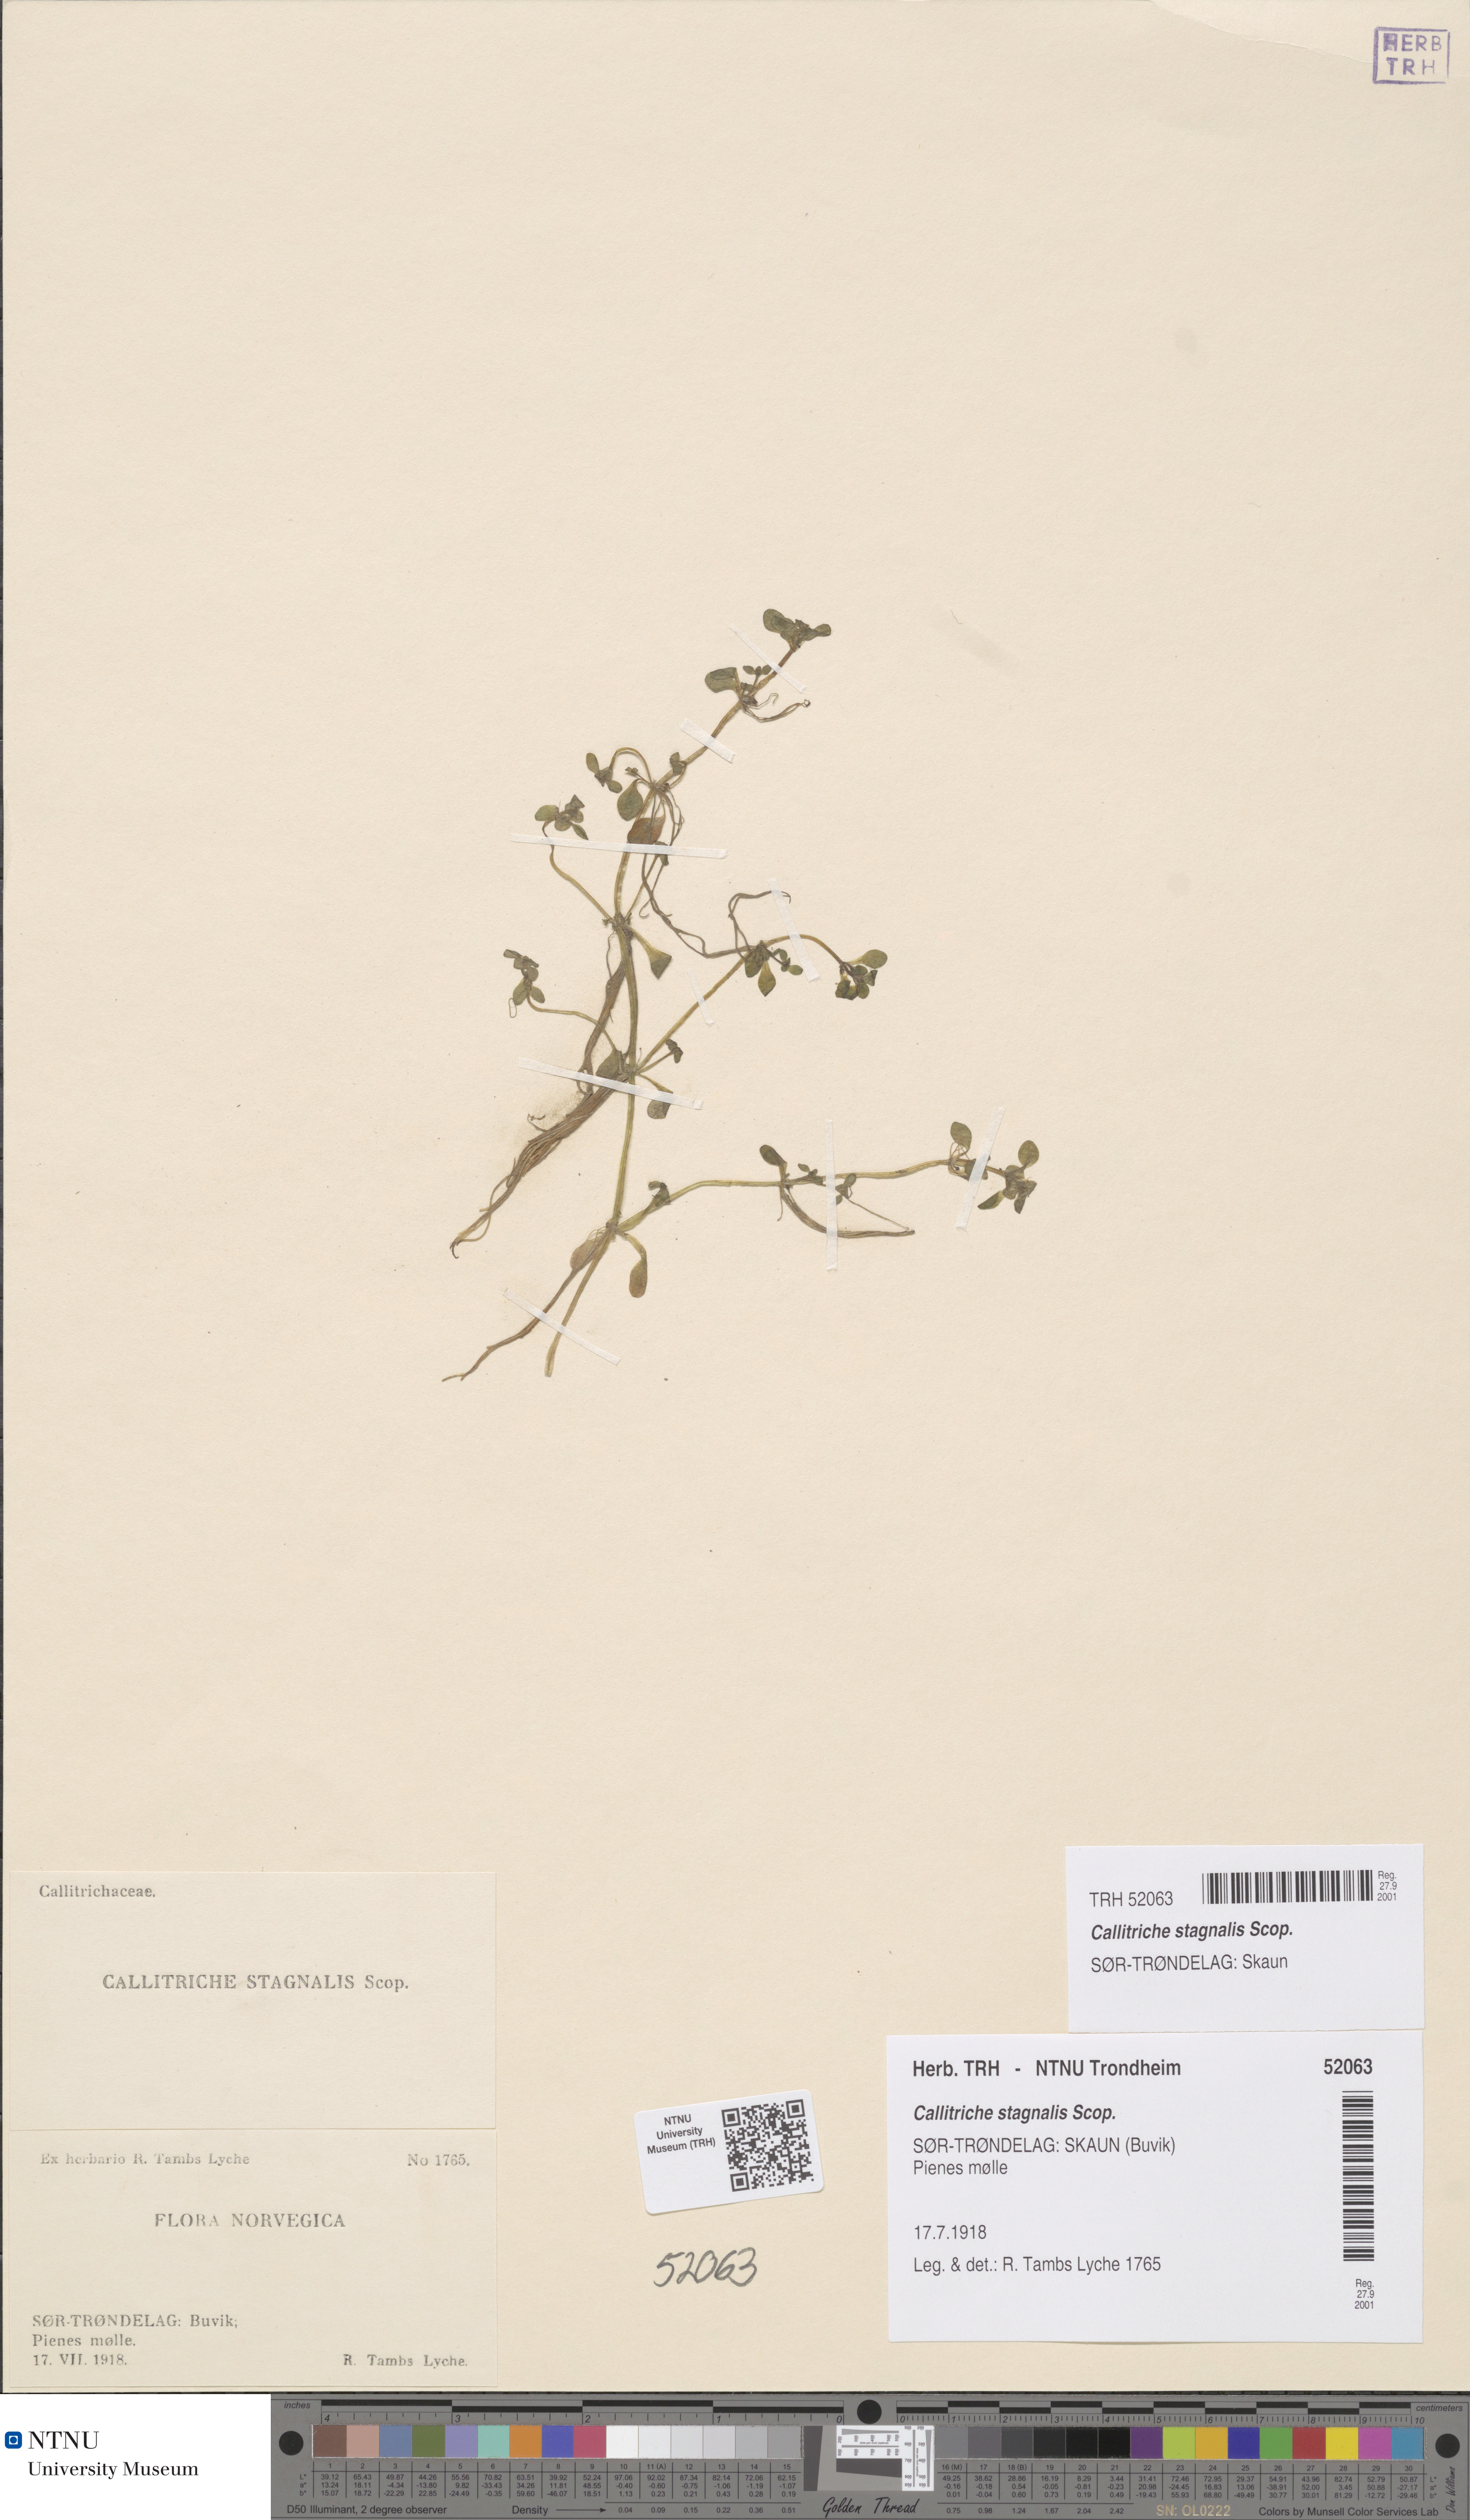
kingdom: Plantae
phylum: Tracheophyta
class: Magnoliopsida
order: Lamiales
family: Plantaginaceae
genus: Callitriche
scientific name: Callitriche stagnalis
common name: Common water-starwort
